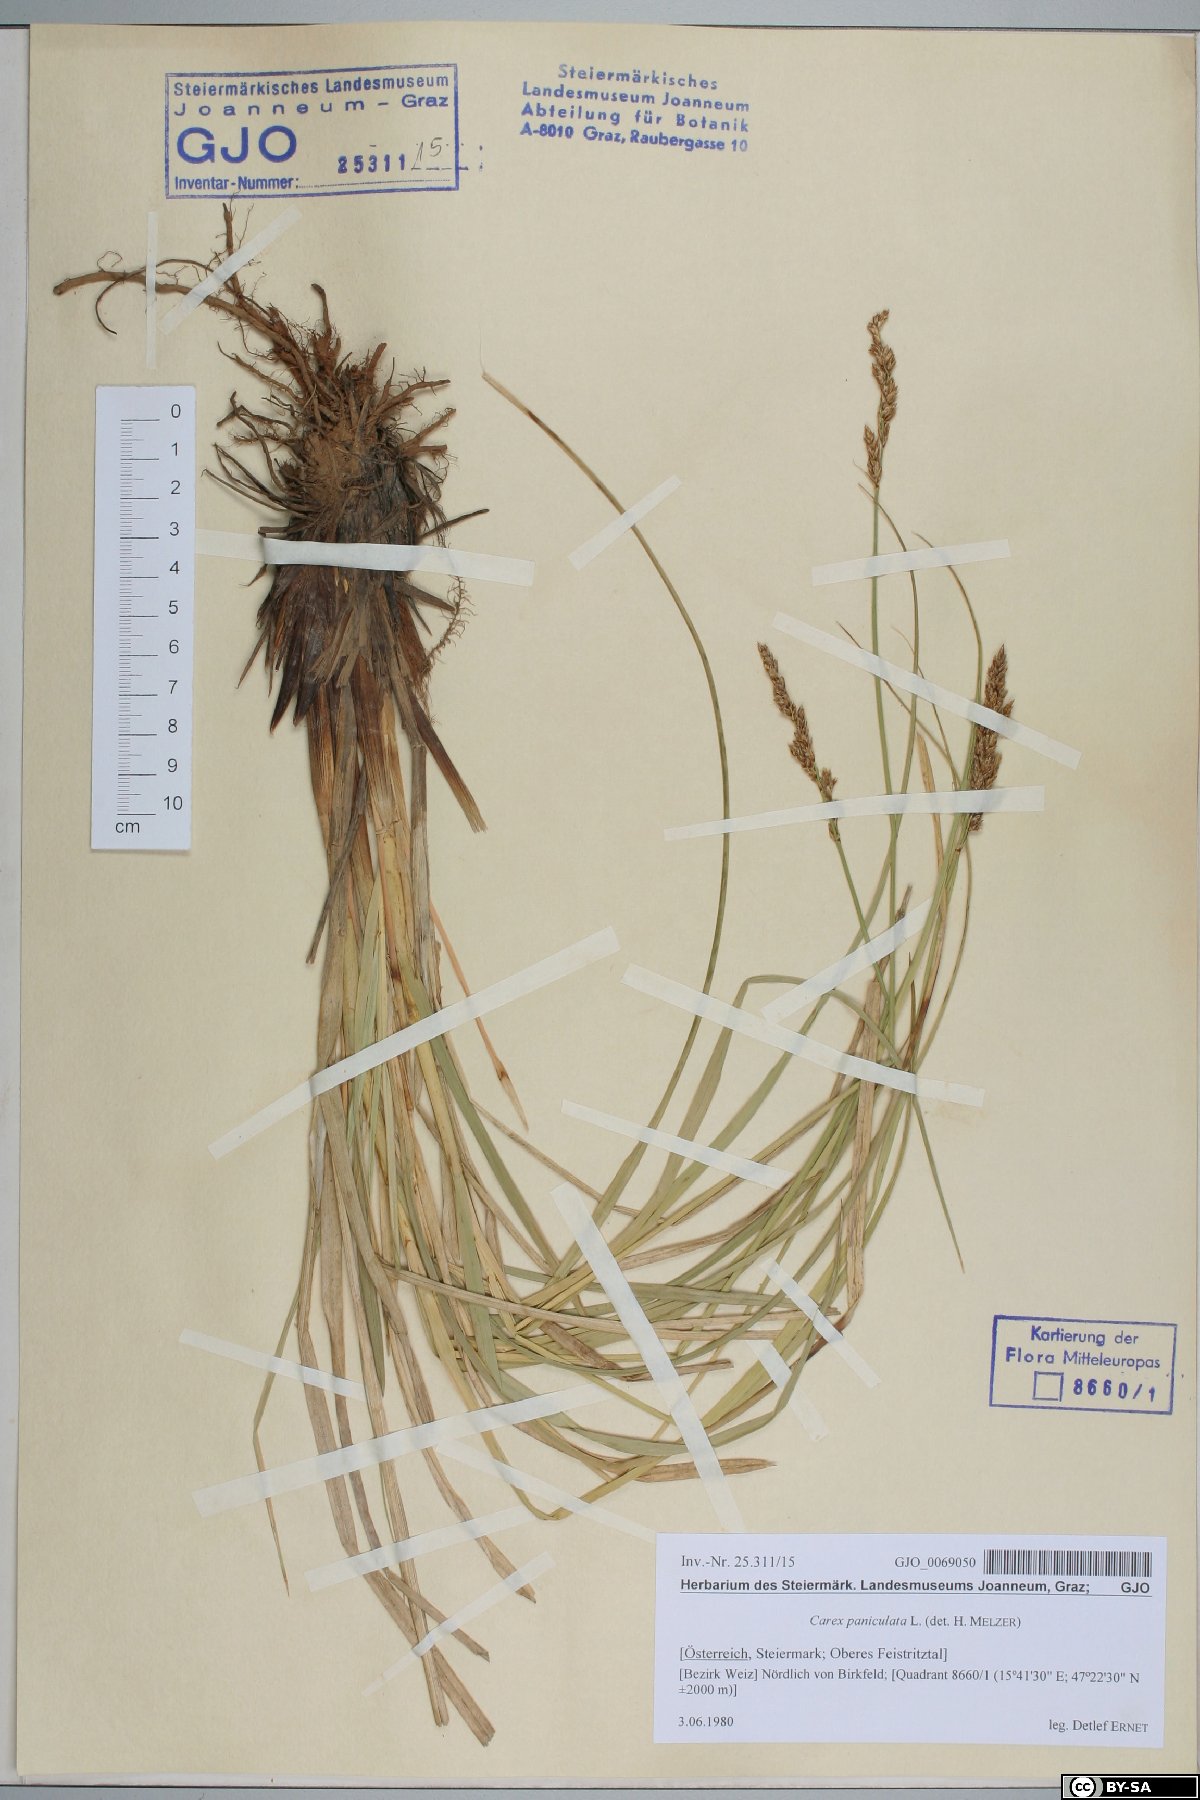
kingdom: Plantae
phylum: Tracheophyta
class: Liliopsida
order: Poales
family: Cyperaceae
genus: Carex
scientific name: Carex paniculata
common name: Greater tussock-sedge
